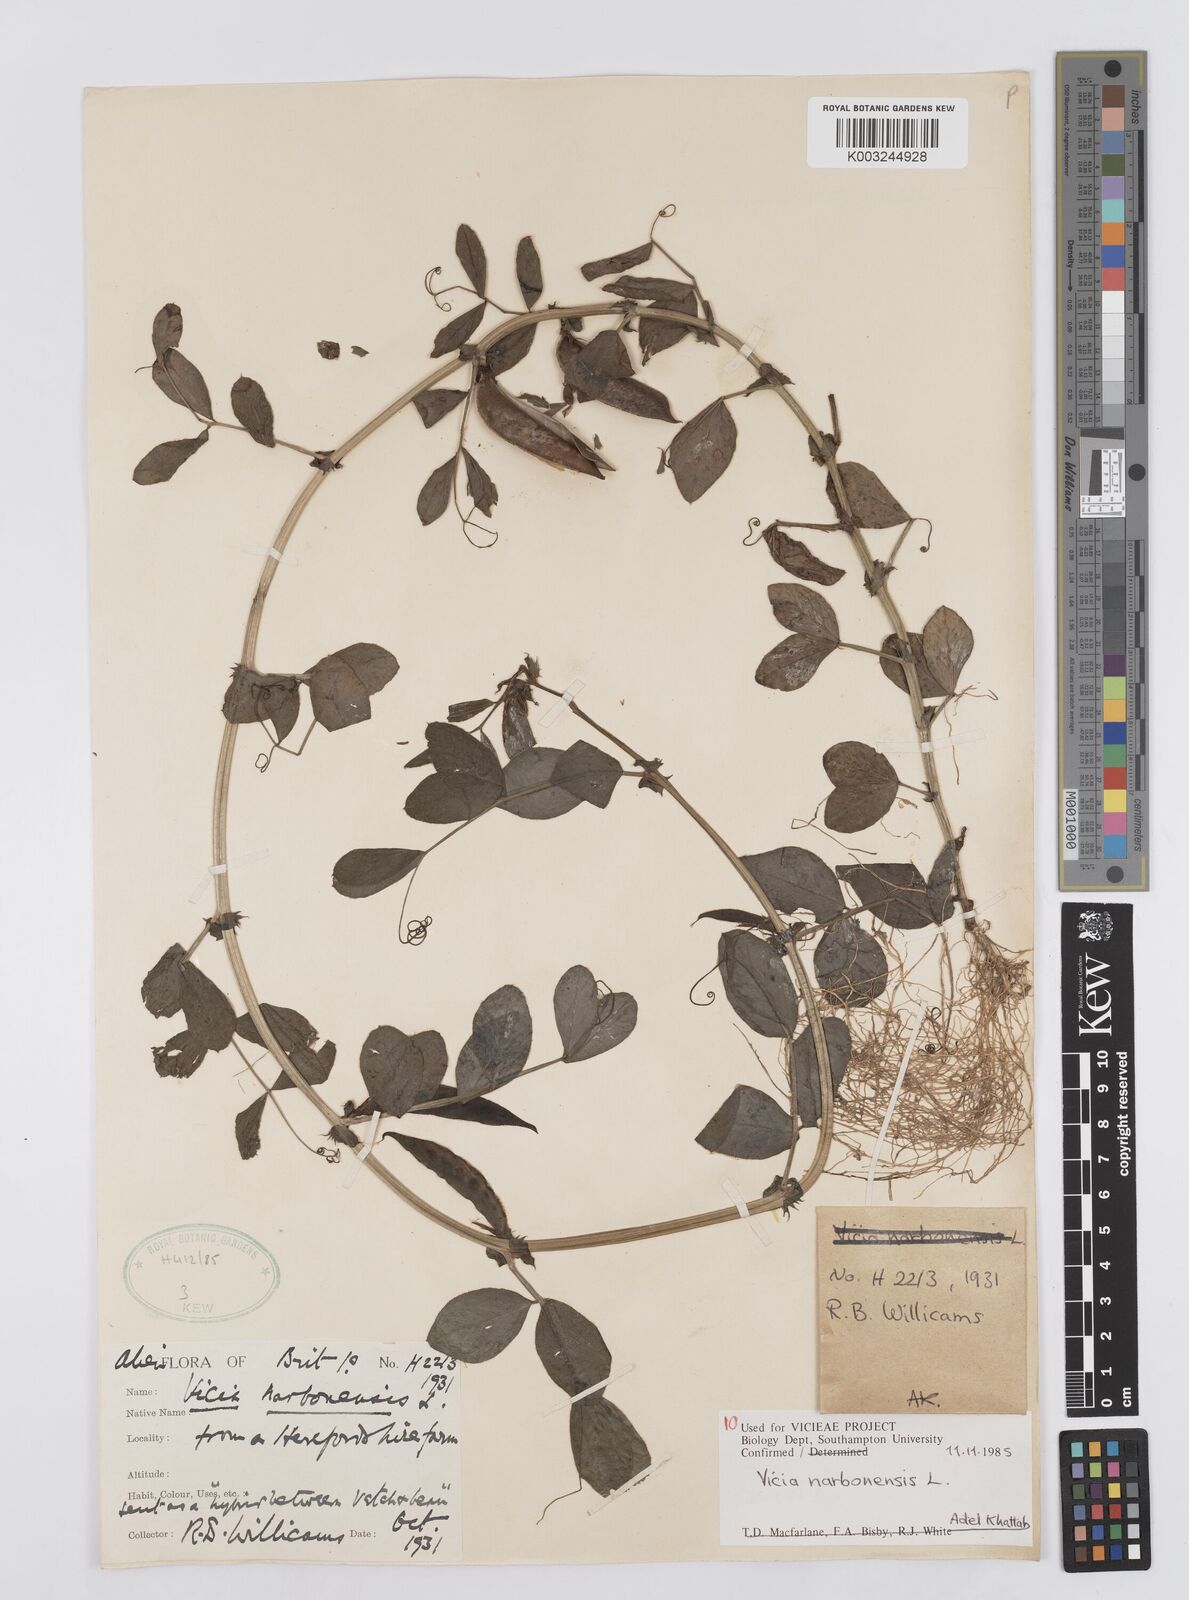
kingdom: Plantae
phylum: Tracheophyta
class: Magnoliopsida
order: Fabales
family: Fabaceae
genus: Vicia
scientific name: Vicia narbonensis
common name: Narbonne vetch
